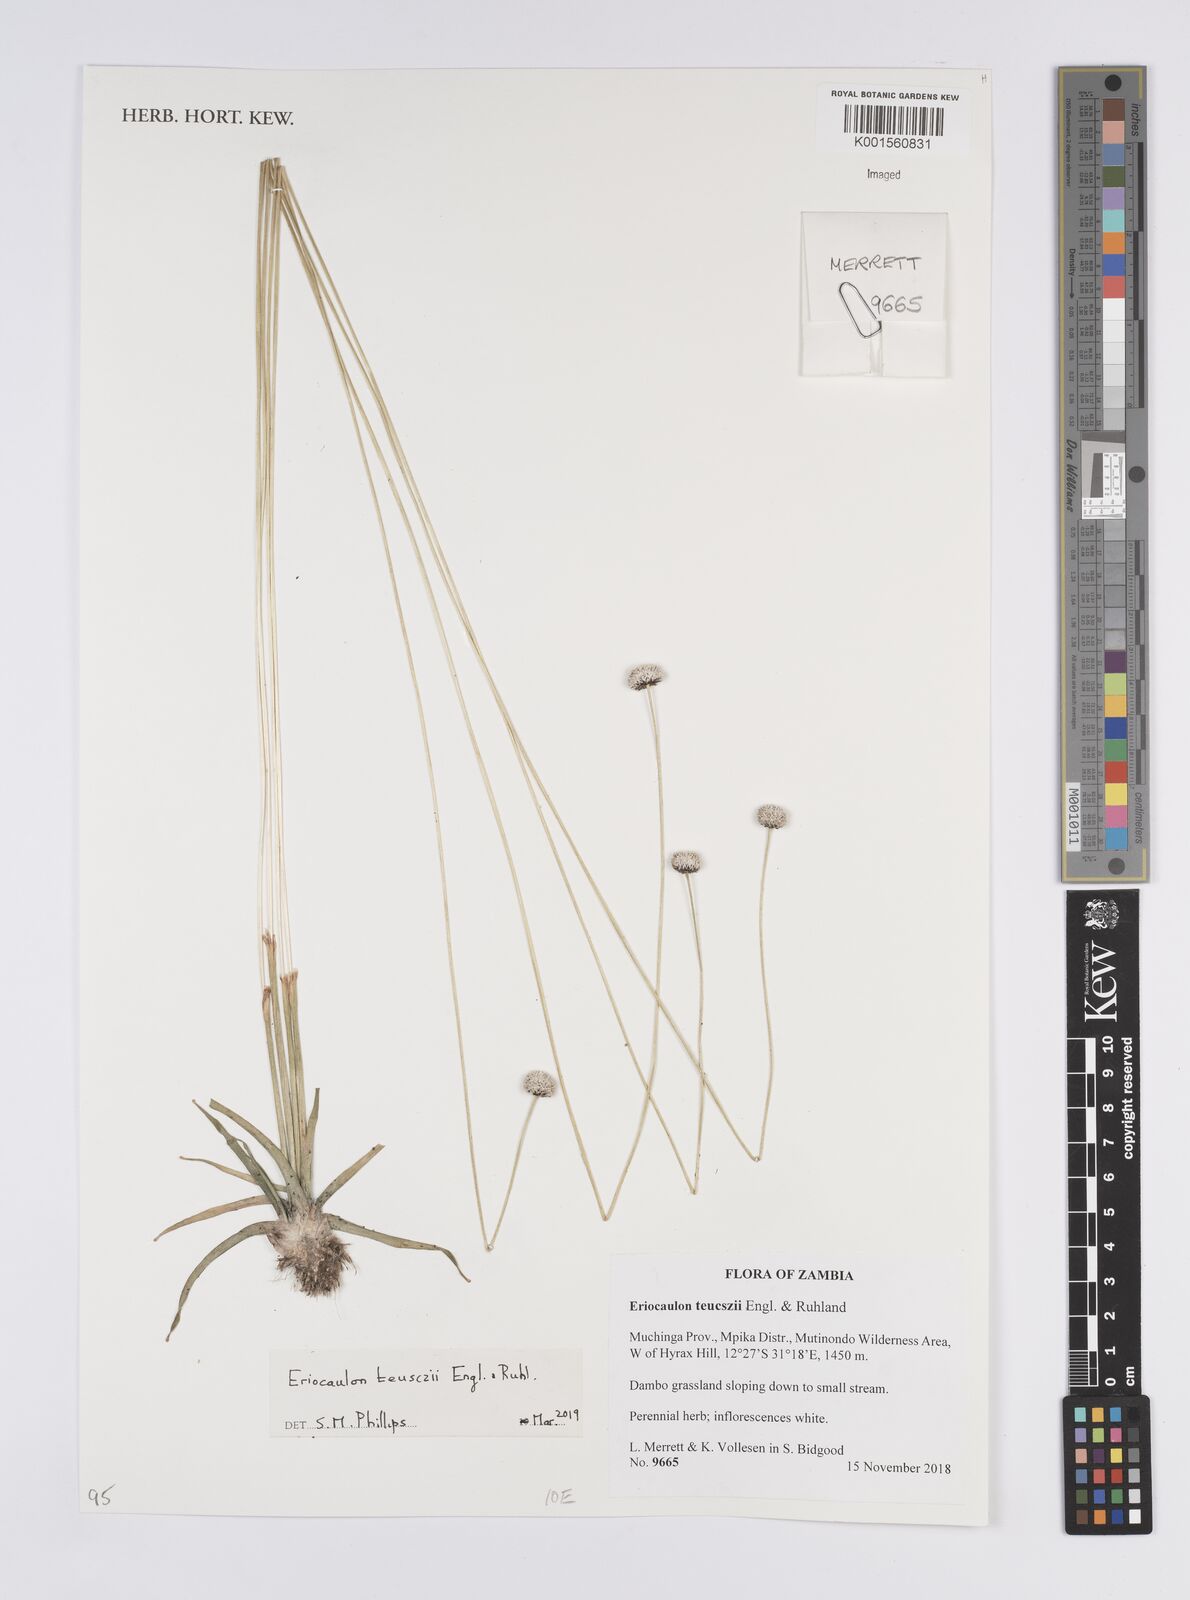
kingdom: Plantae
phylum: Tracheophyta
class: Liliopsida
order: Poales
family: Eriocaulaceae
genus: Eriocaulon
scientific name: Eriocaulon teusczii
